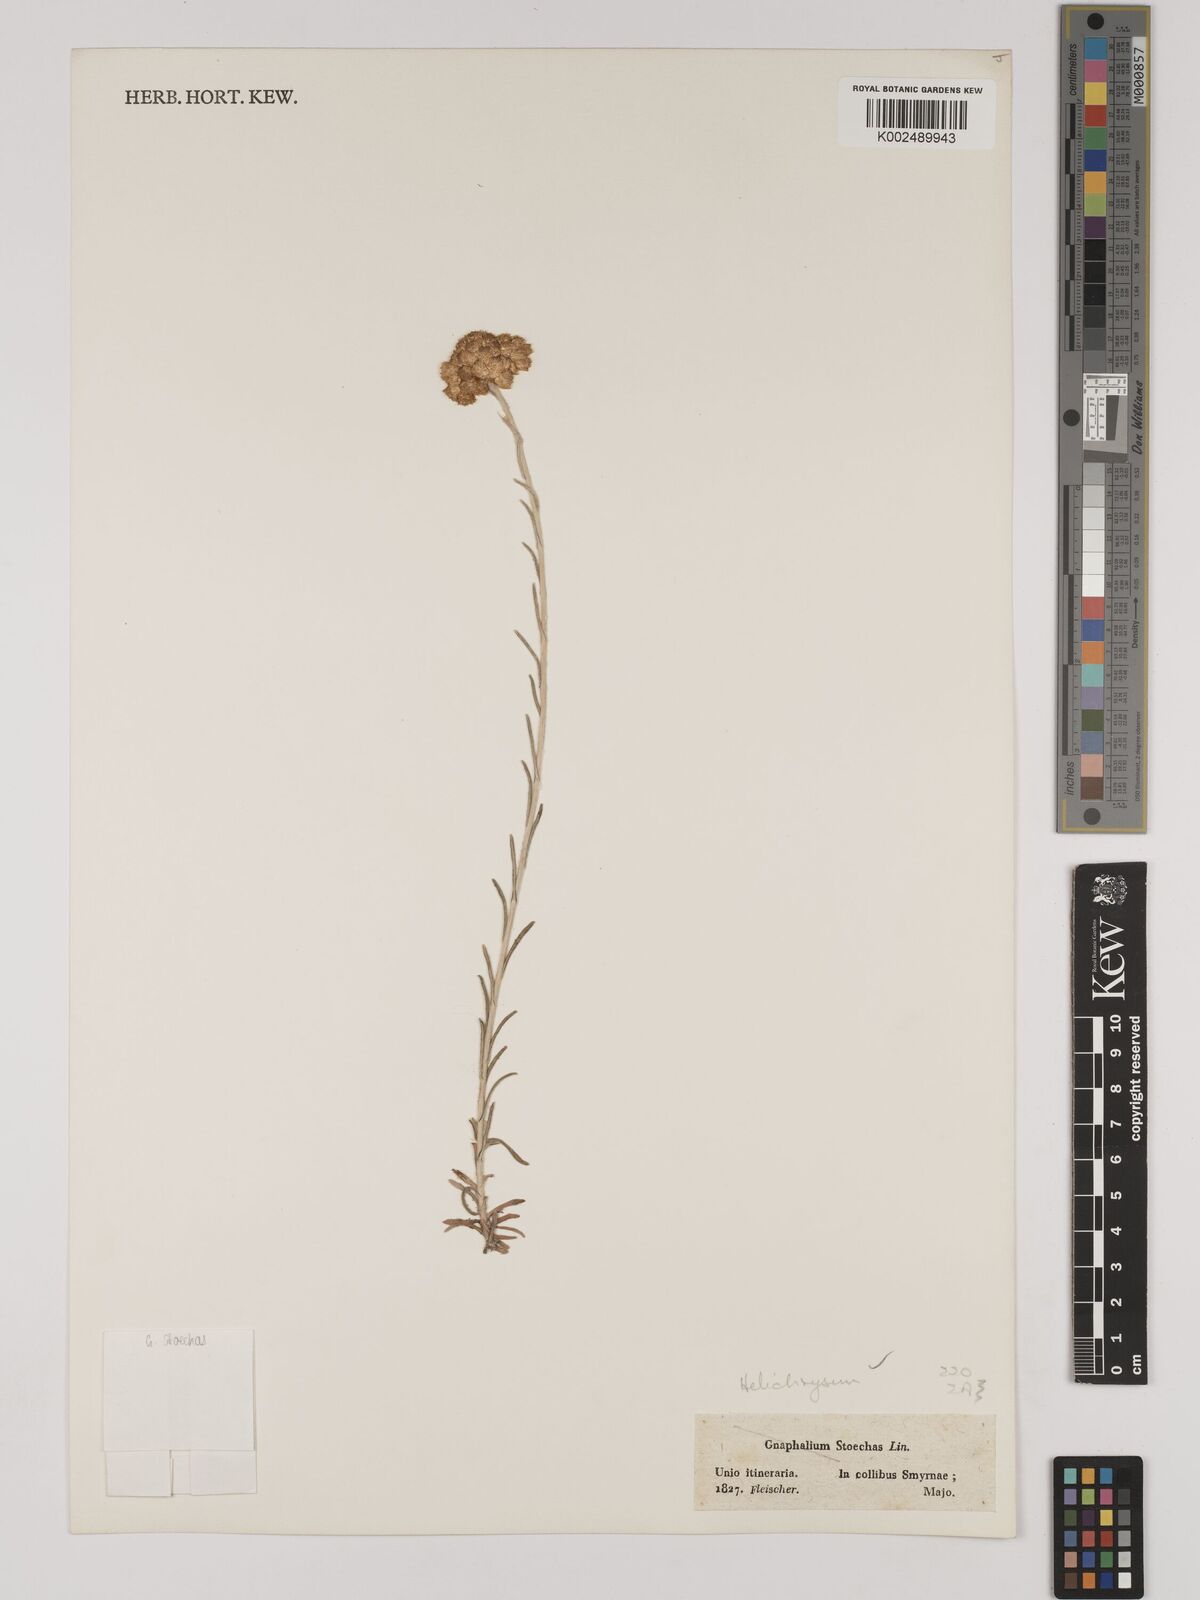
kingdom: Plantae
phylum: Tracheophyta
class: Magnoliopsida
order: Asterales
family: Asteraceae
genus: Helichrysum
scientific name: Helichrysum stoechas
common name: Goldilocks
